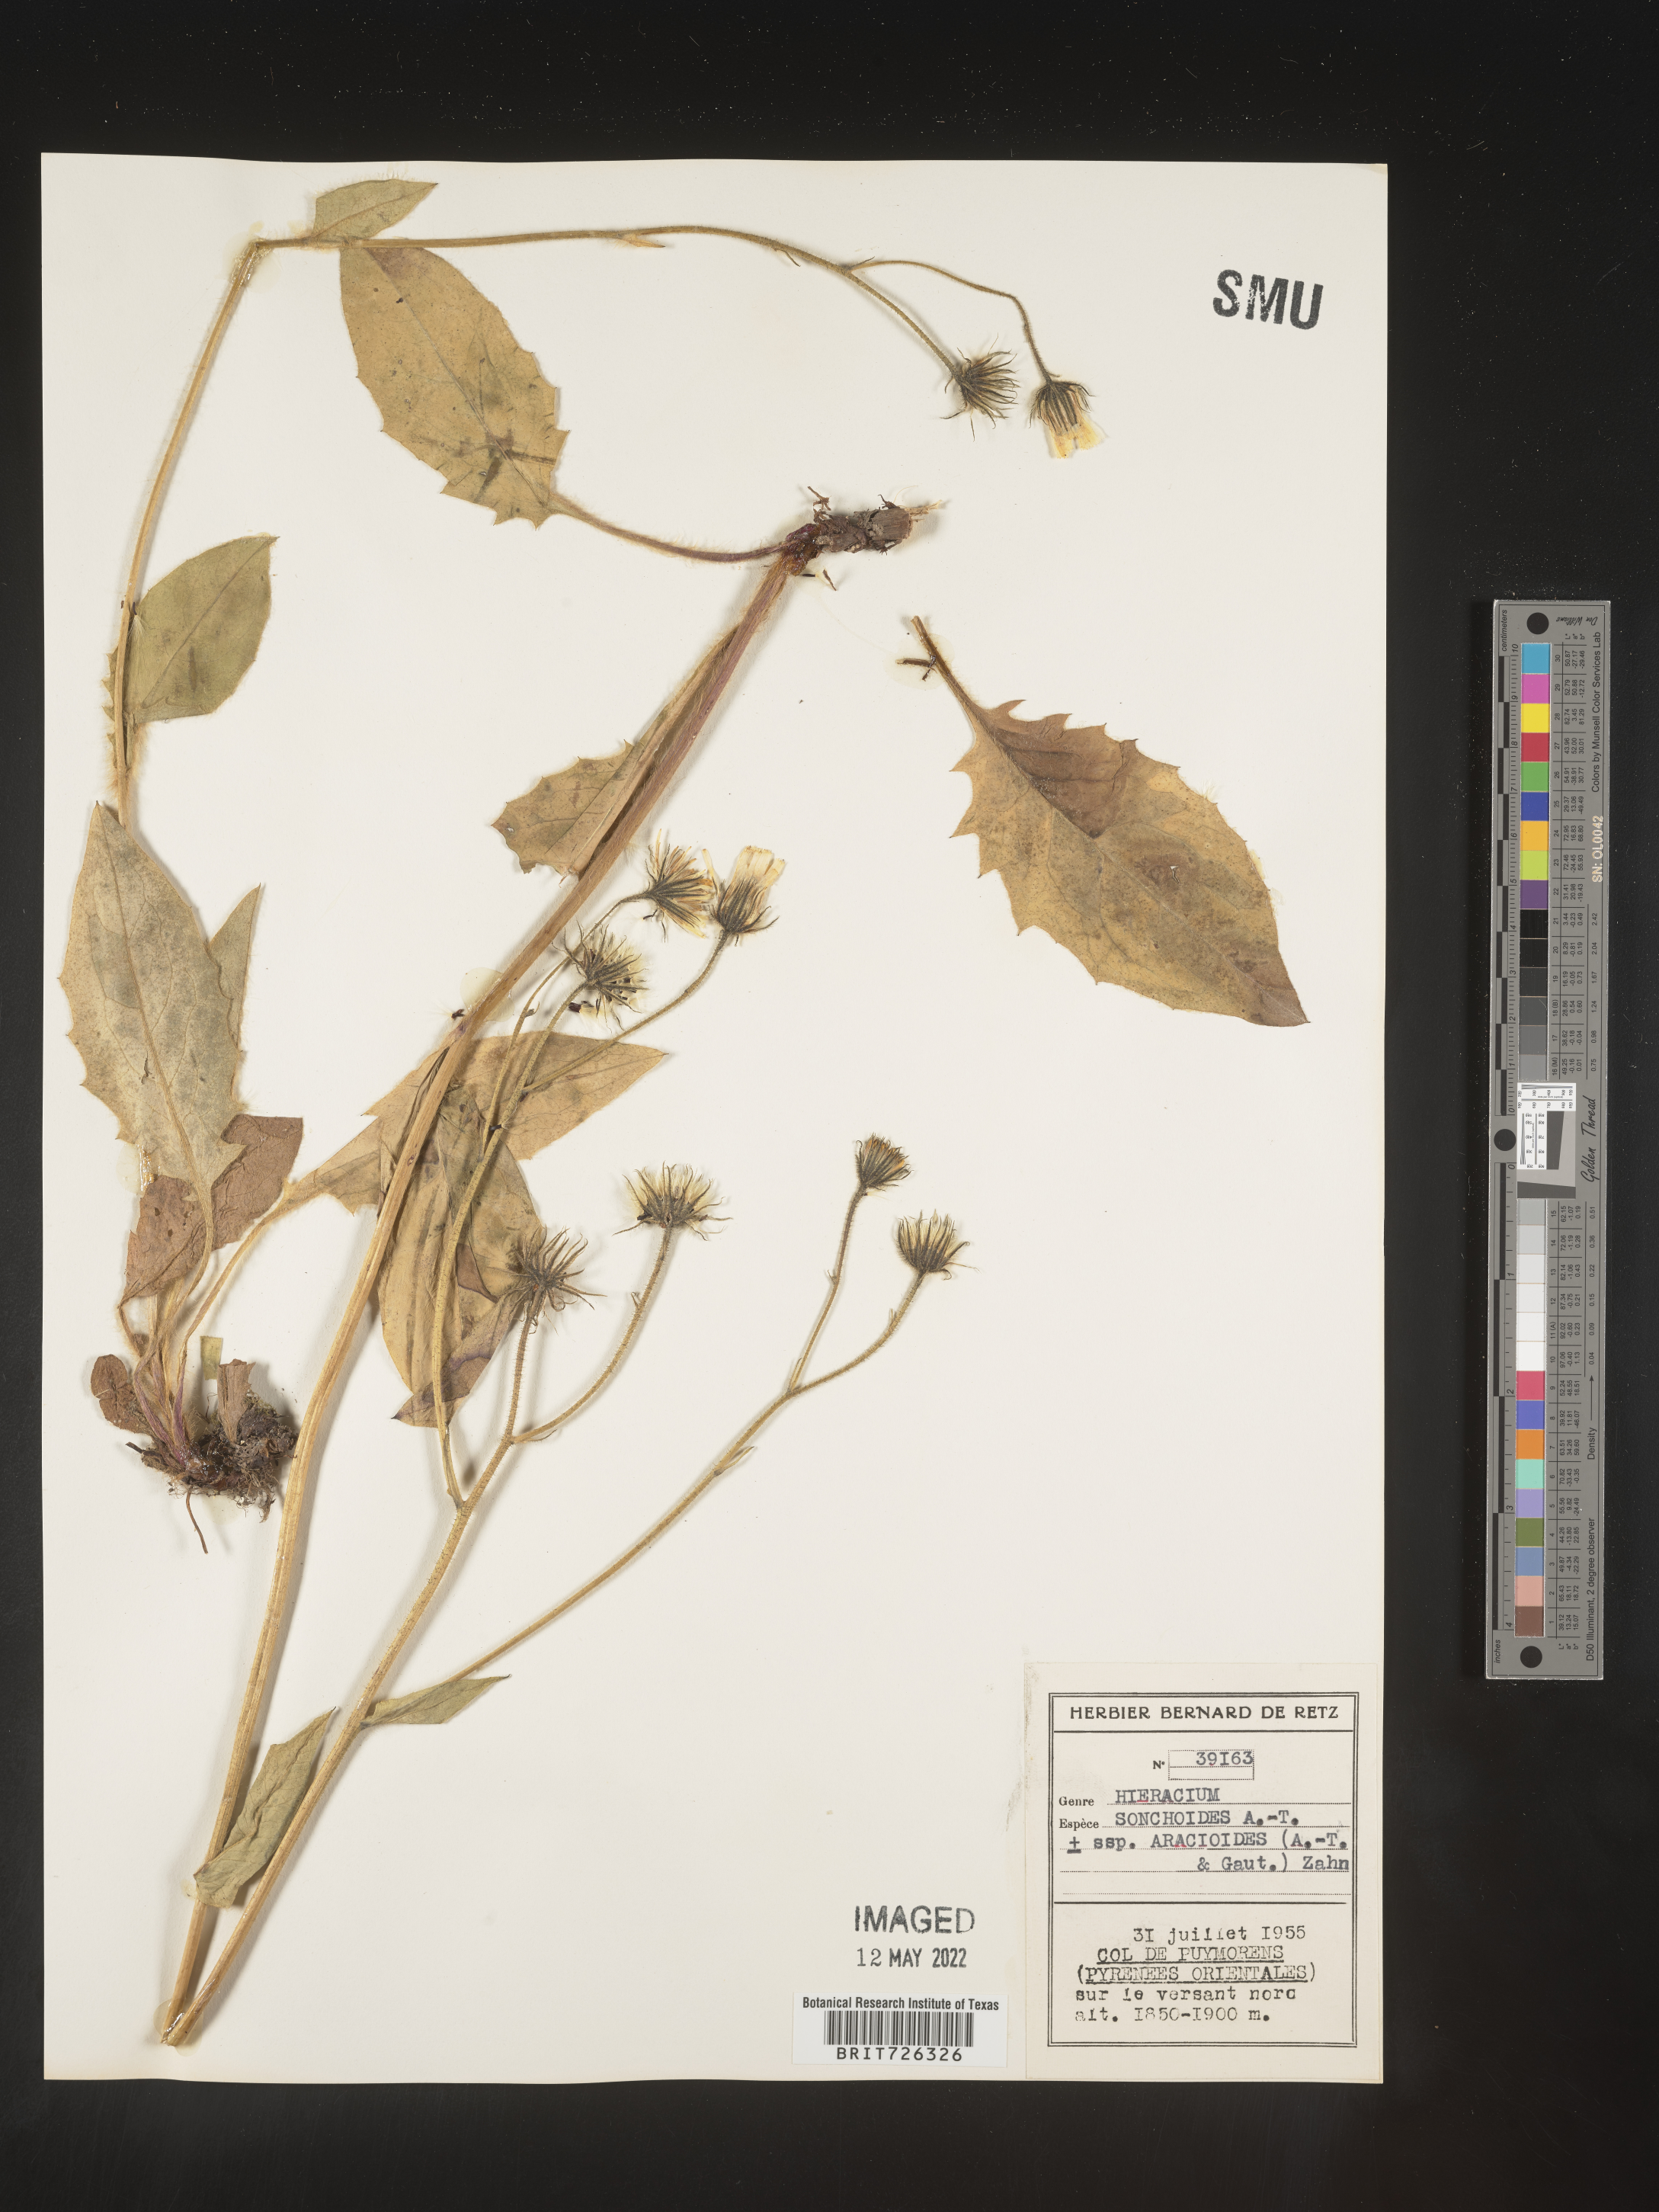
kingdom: Plantae
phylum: Tracheophyta
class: Magnoliopsida
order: Asterales
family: Asteraceae
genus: Hieracium
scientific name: Hieracium
